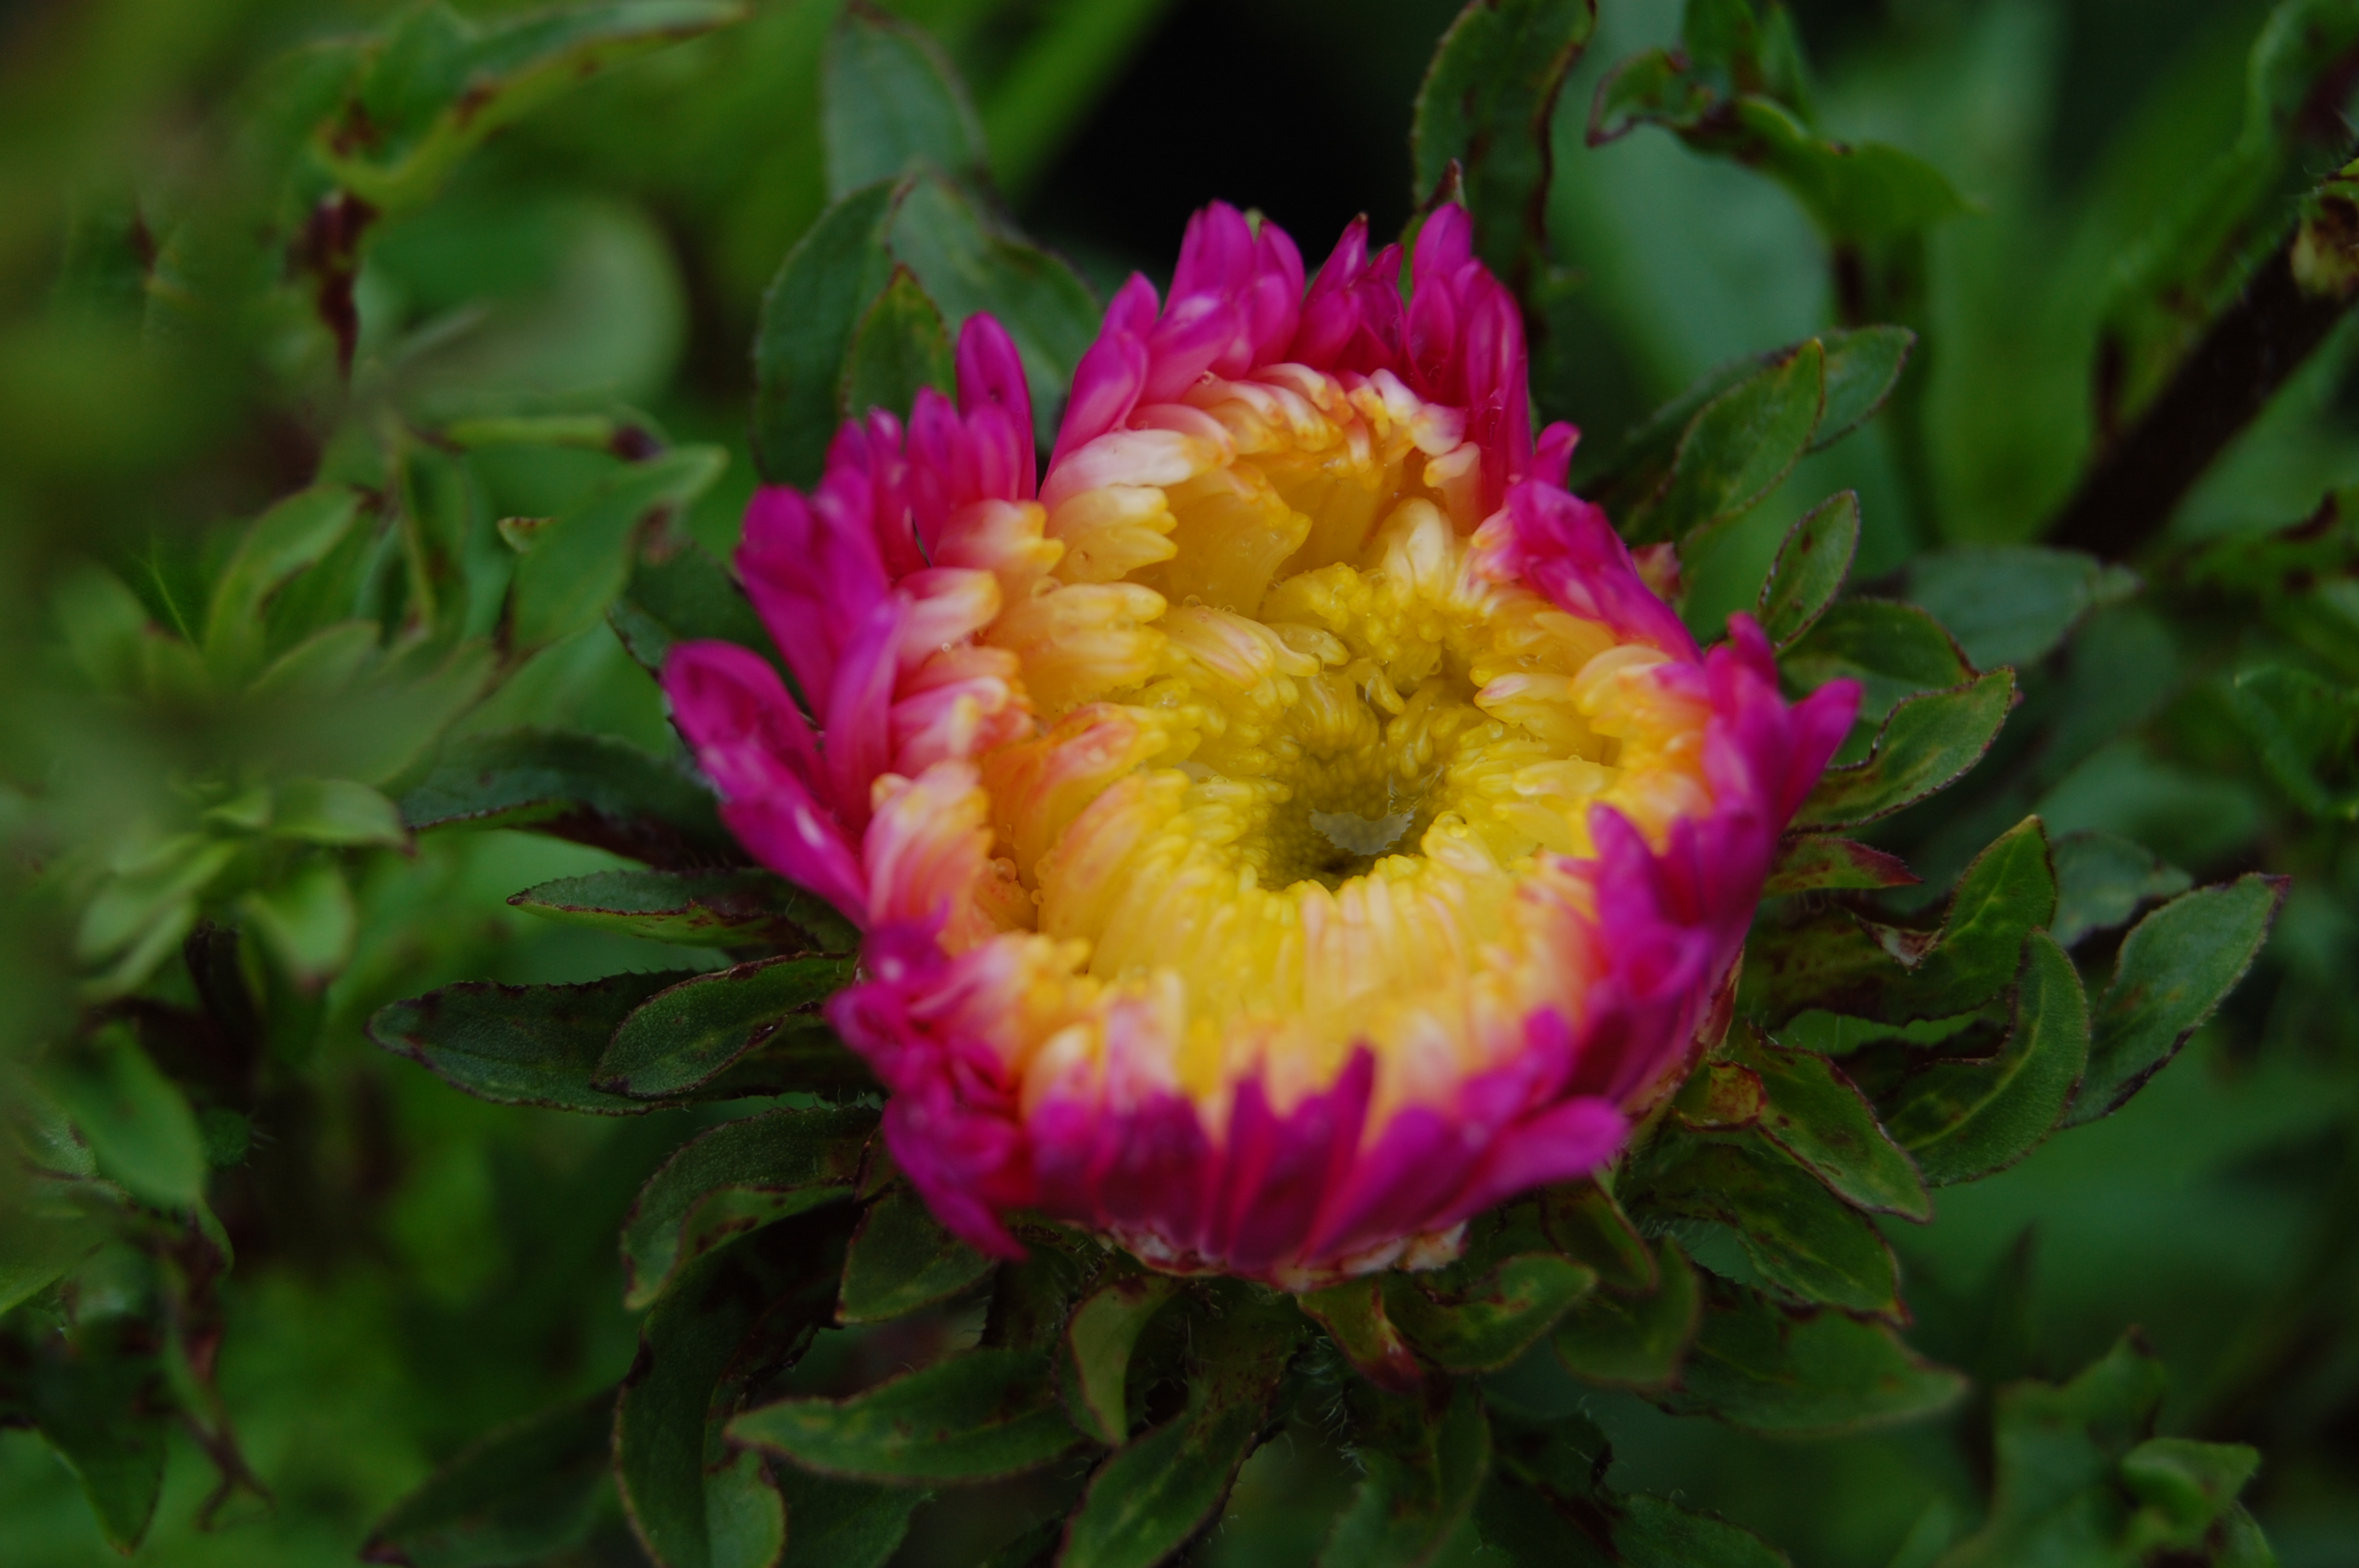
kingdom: Plantae
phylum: Tracheophyta
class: Magnoliopsida
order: Asterales
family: Asteraceae
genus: Callistephus
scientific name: Callistephus chinensis
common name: China aster
